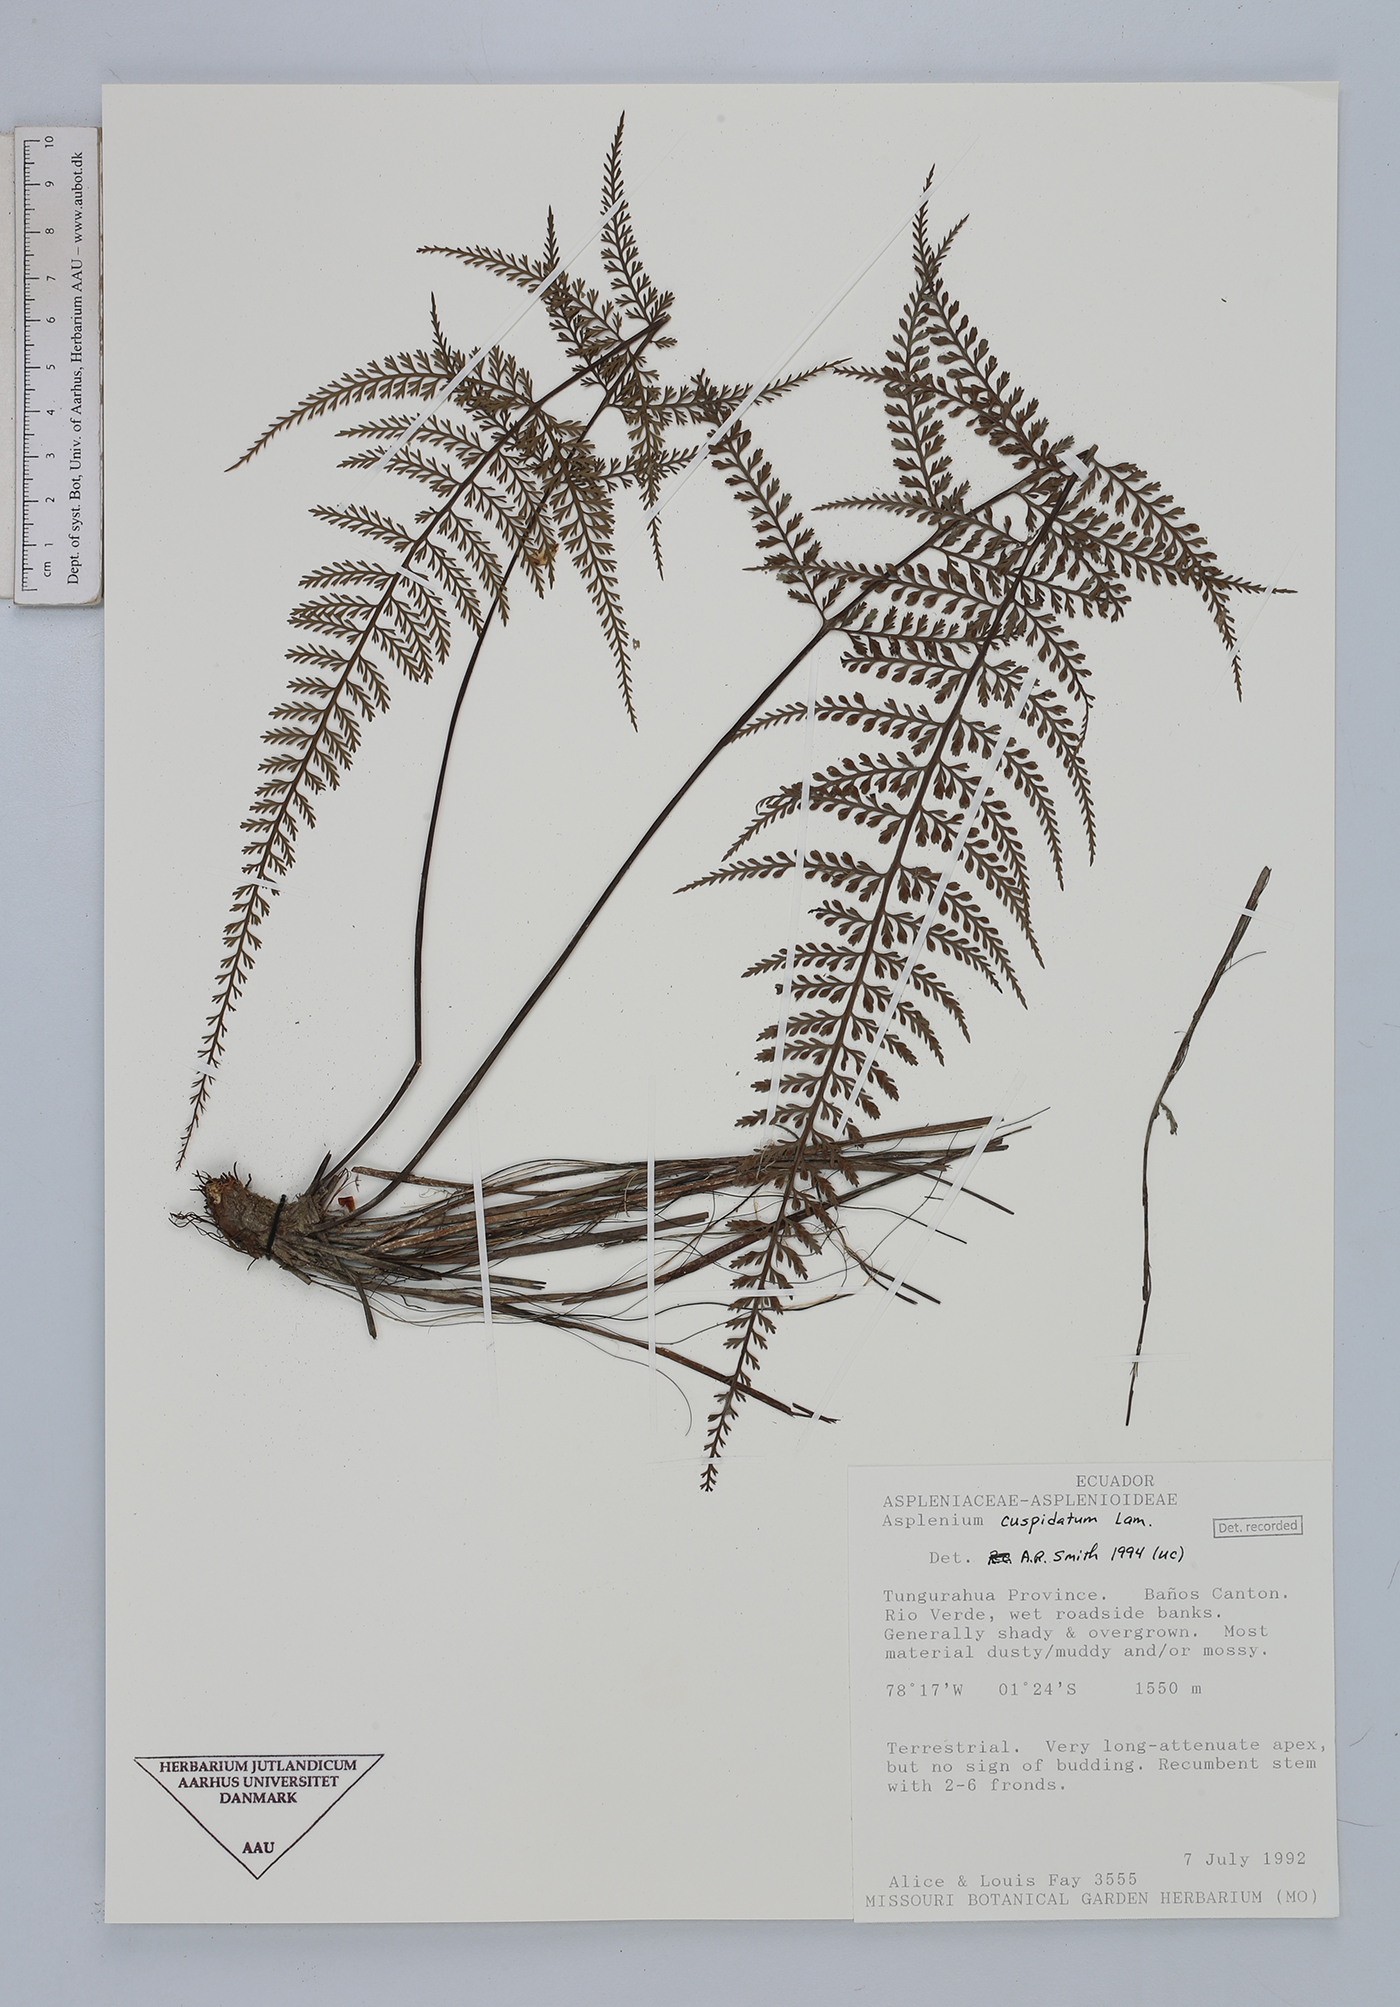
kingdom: Plantae
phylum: Tracheophyta
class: Polypodiopsida
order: Polypodiales
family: Aspleniaceae
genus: Asplenium
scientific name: Asplenium cuspidatum
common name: Eared spleenwort
